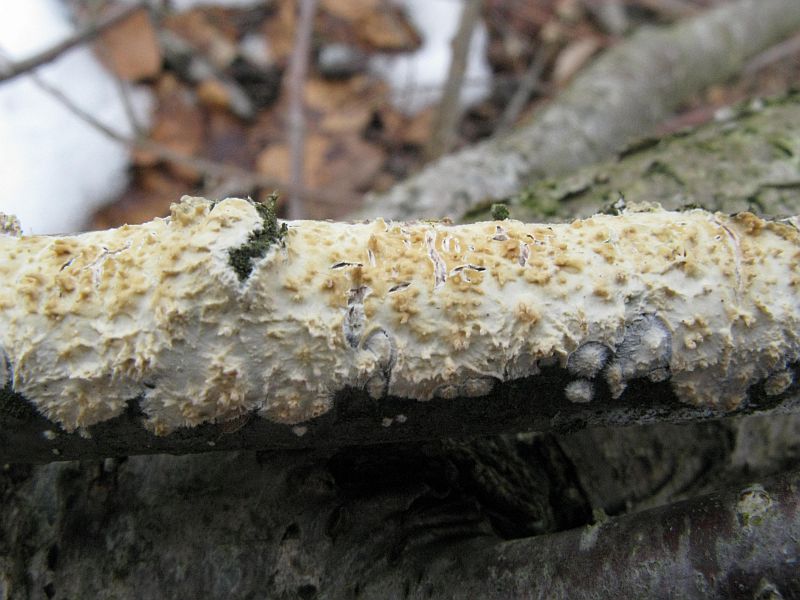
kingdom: Fungi
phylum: Basidiomycota
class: Agaricomycetes
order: Hymenochaetales
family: Schizoporaceae
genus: Xylodon
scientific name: Xylodon radula
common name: grovtandet kalkskind
